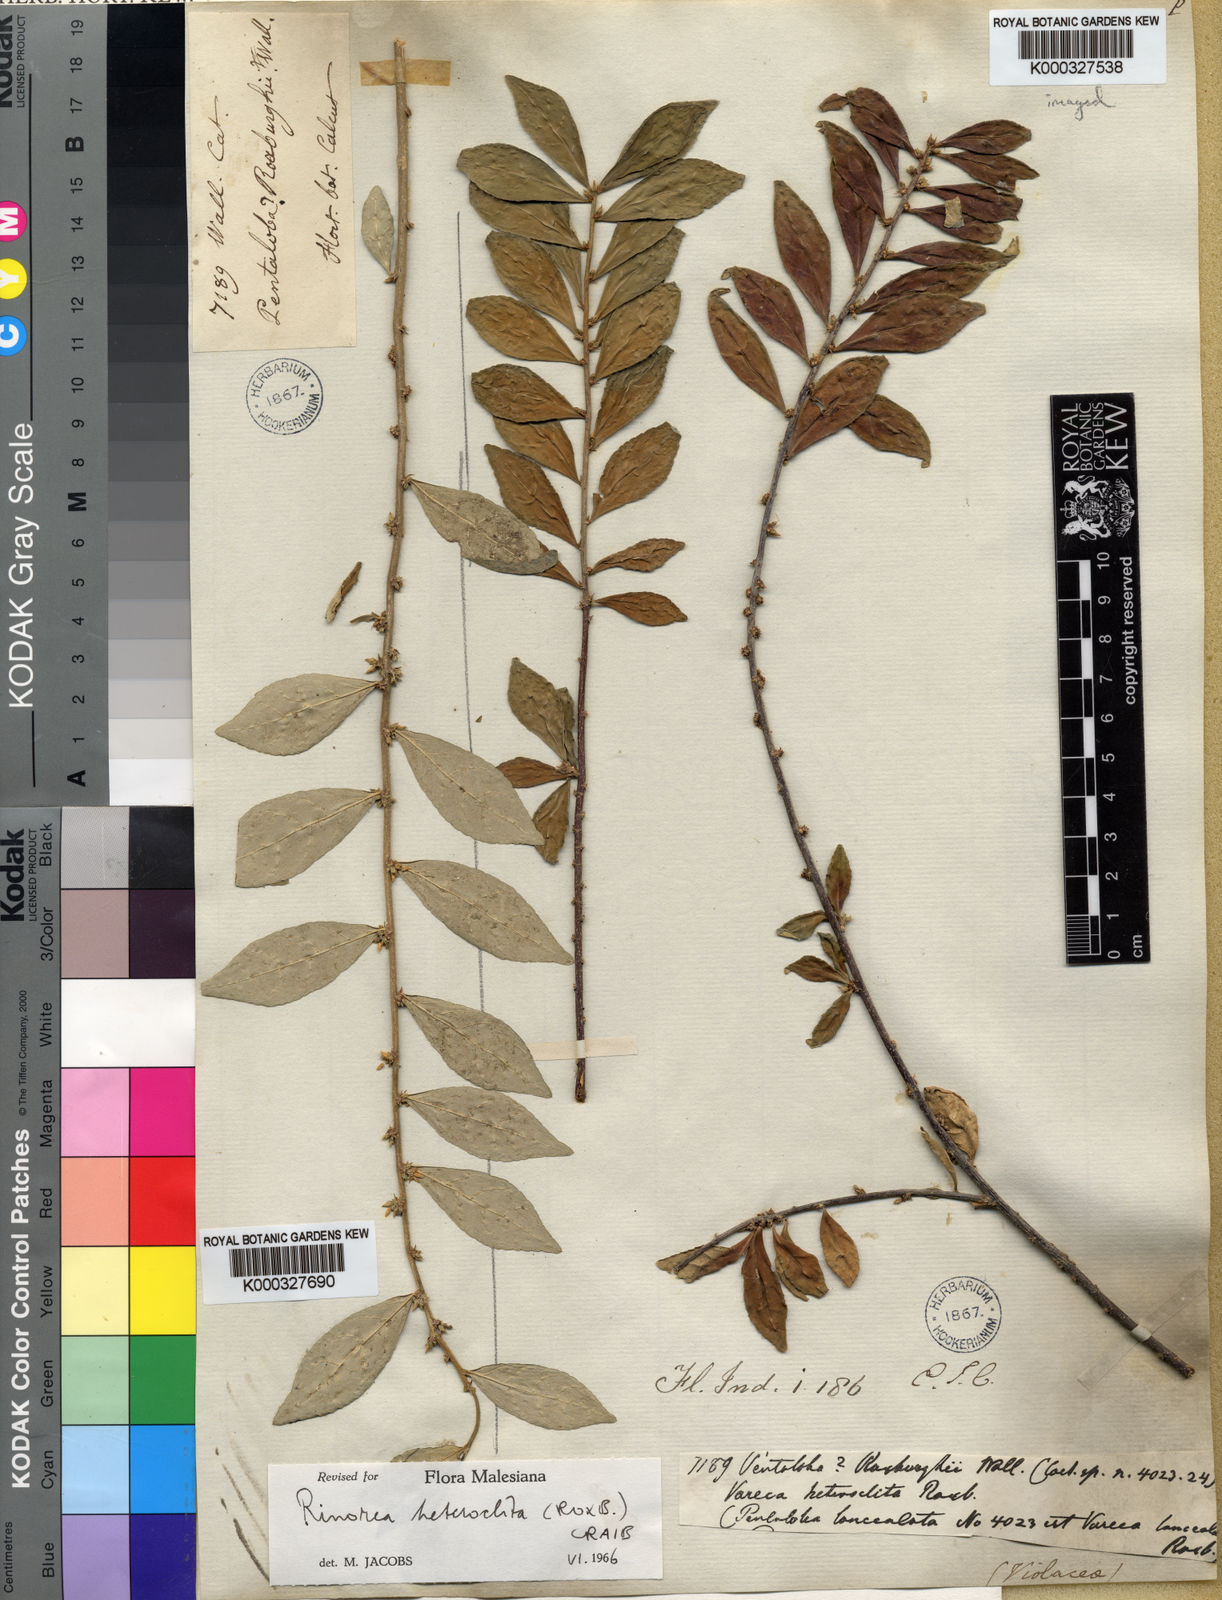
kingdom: Plantae
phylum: Tracheophyta
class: Magnoliopsida
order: Malpighiales
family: Violaceae
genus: Rinorea
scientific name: Rinorea heteroclita
